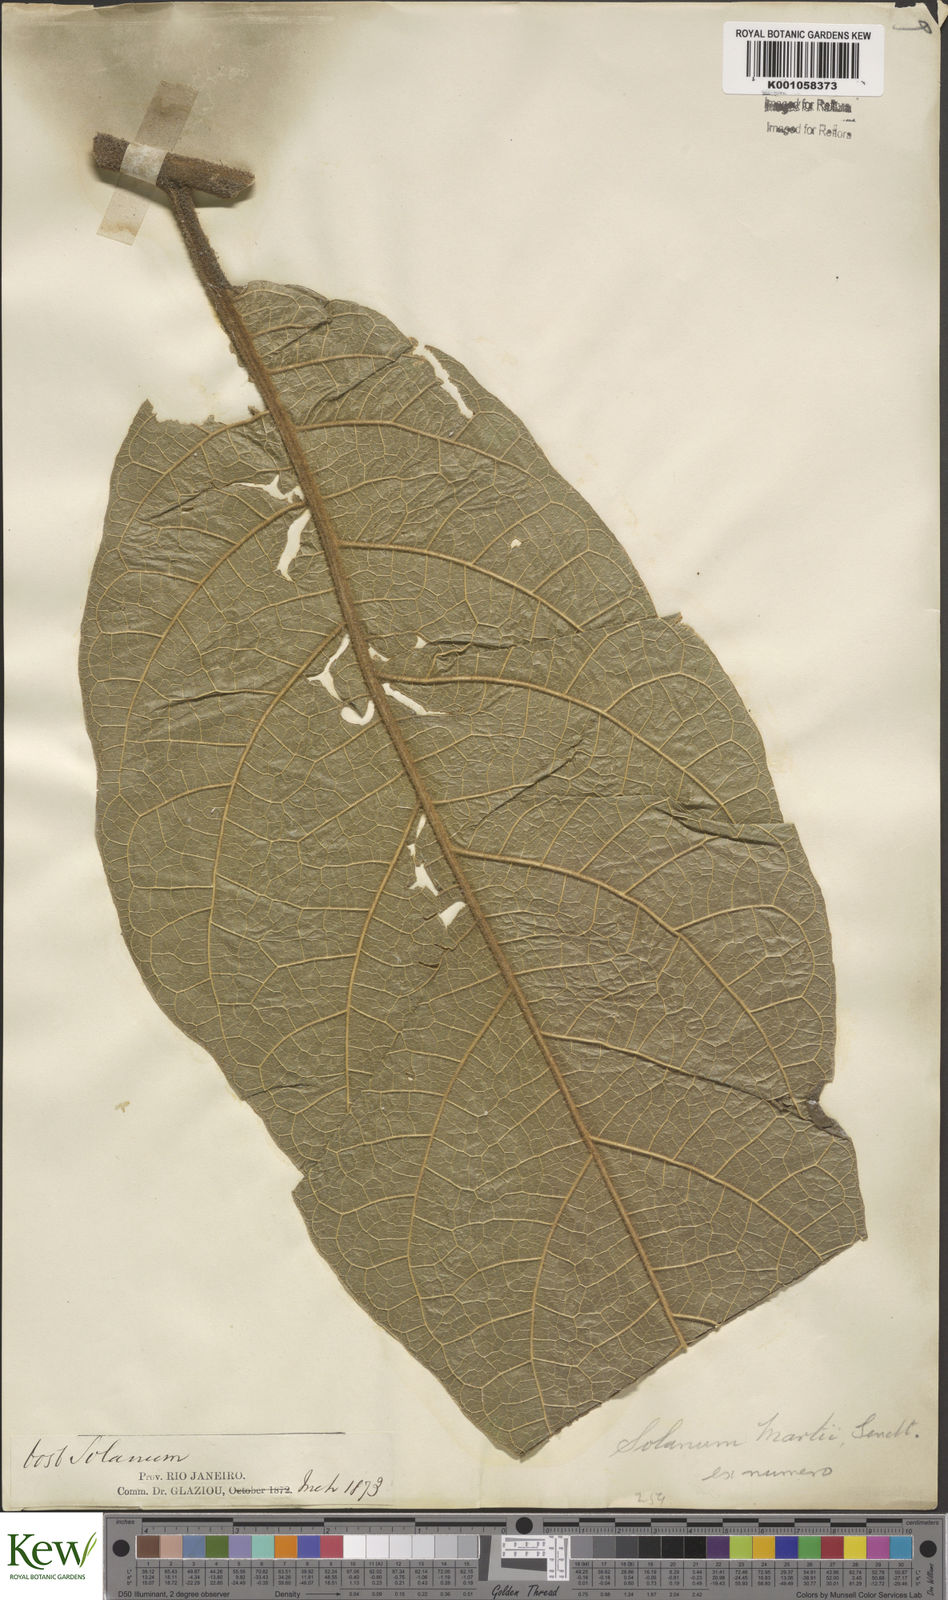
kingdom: Plantae
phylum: Tracheophyta
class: Magnoliopsida
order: Solanales
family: Solanaceae
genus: Solanum
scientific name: Solanum martii
